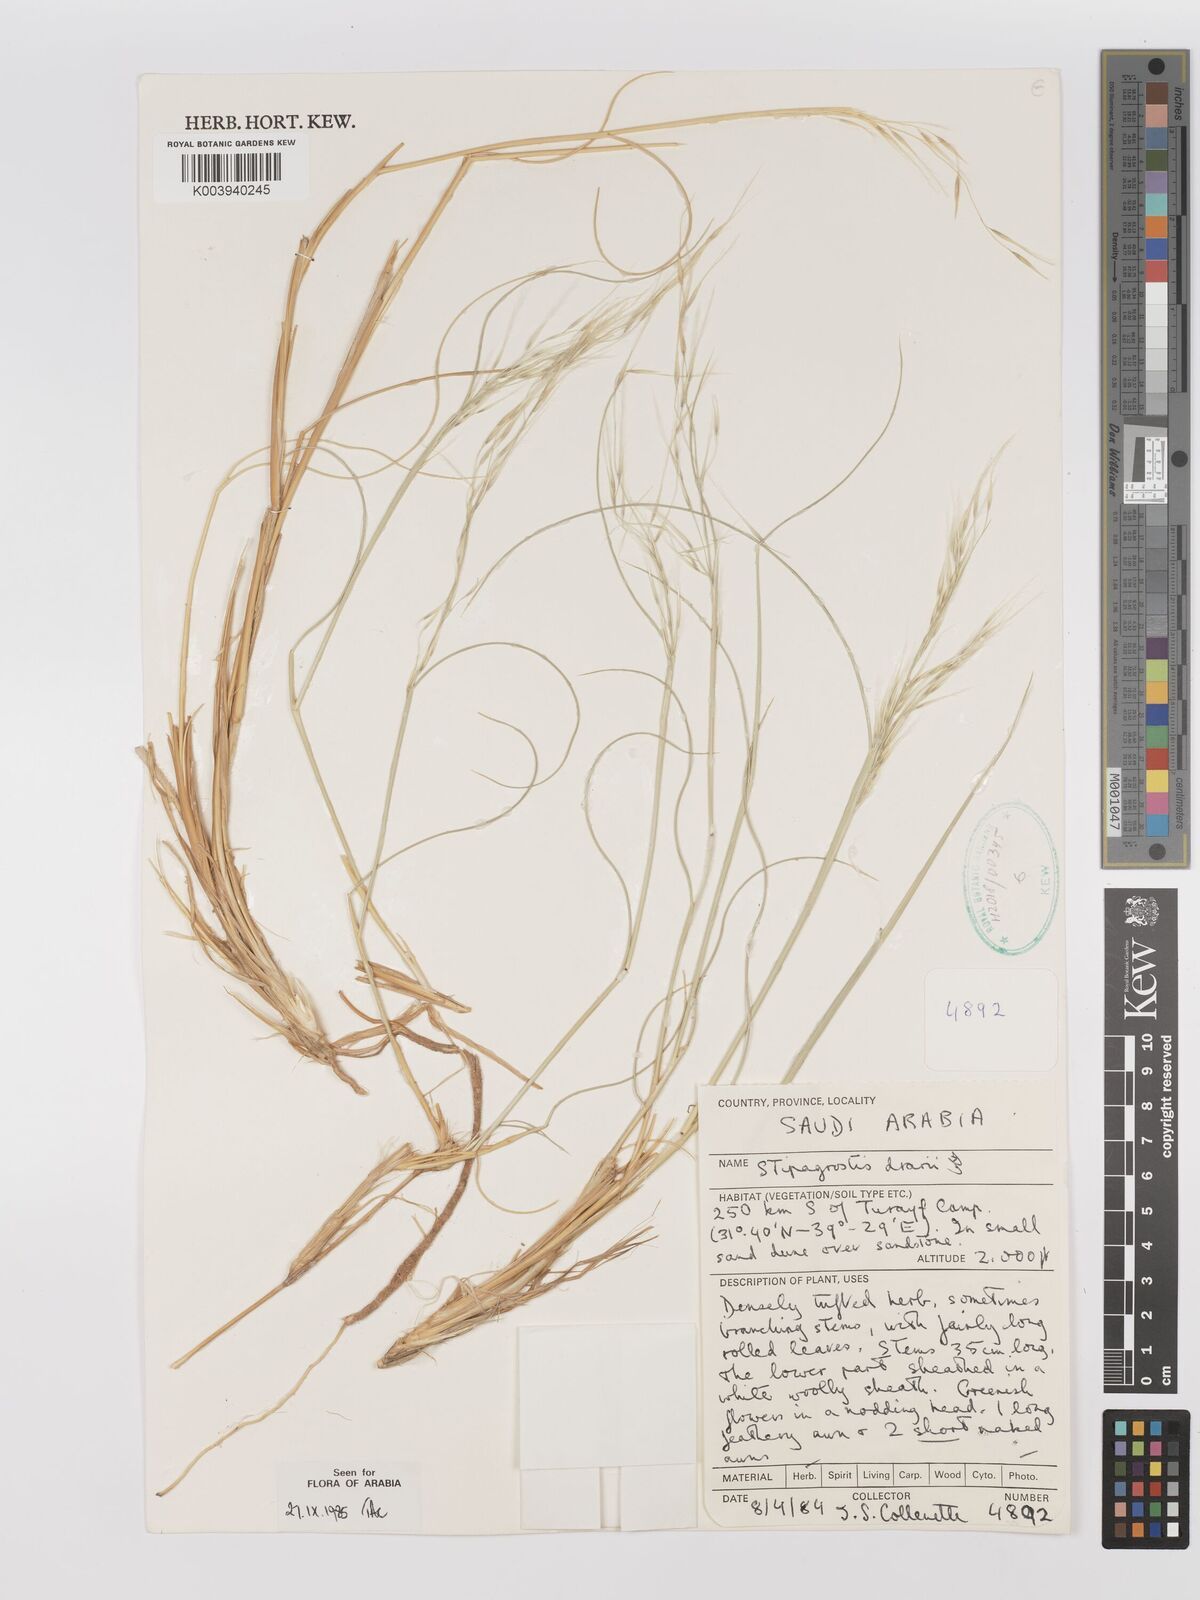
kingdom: Plantae
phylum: Tracheophyta
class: Liliopsida
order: Poales
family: Poaceae
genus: Stipagrostis
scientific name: Stipagrostis drarii
